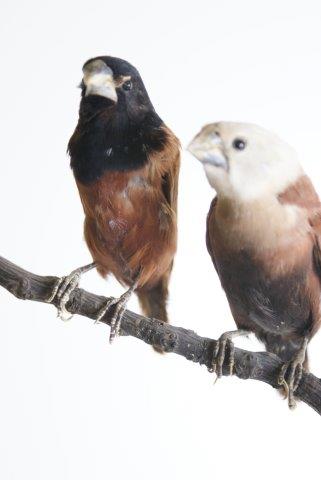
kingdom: Animalia
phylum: Chordata
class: Aves
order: Passeriformes
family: Estrildidae
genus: Lonchura
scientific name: Lonchura atricapilla
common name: Chestnut munia
